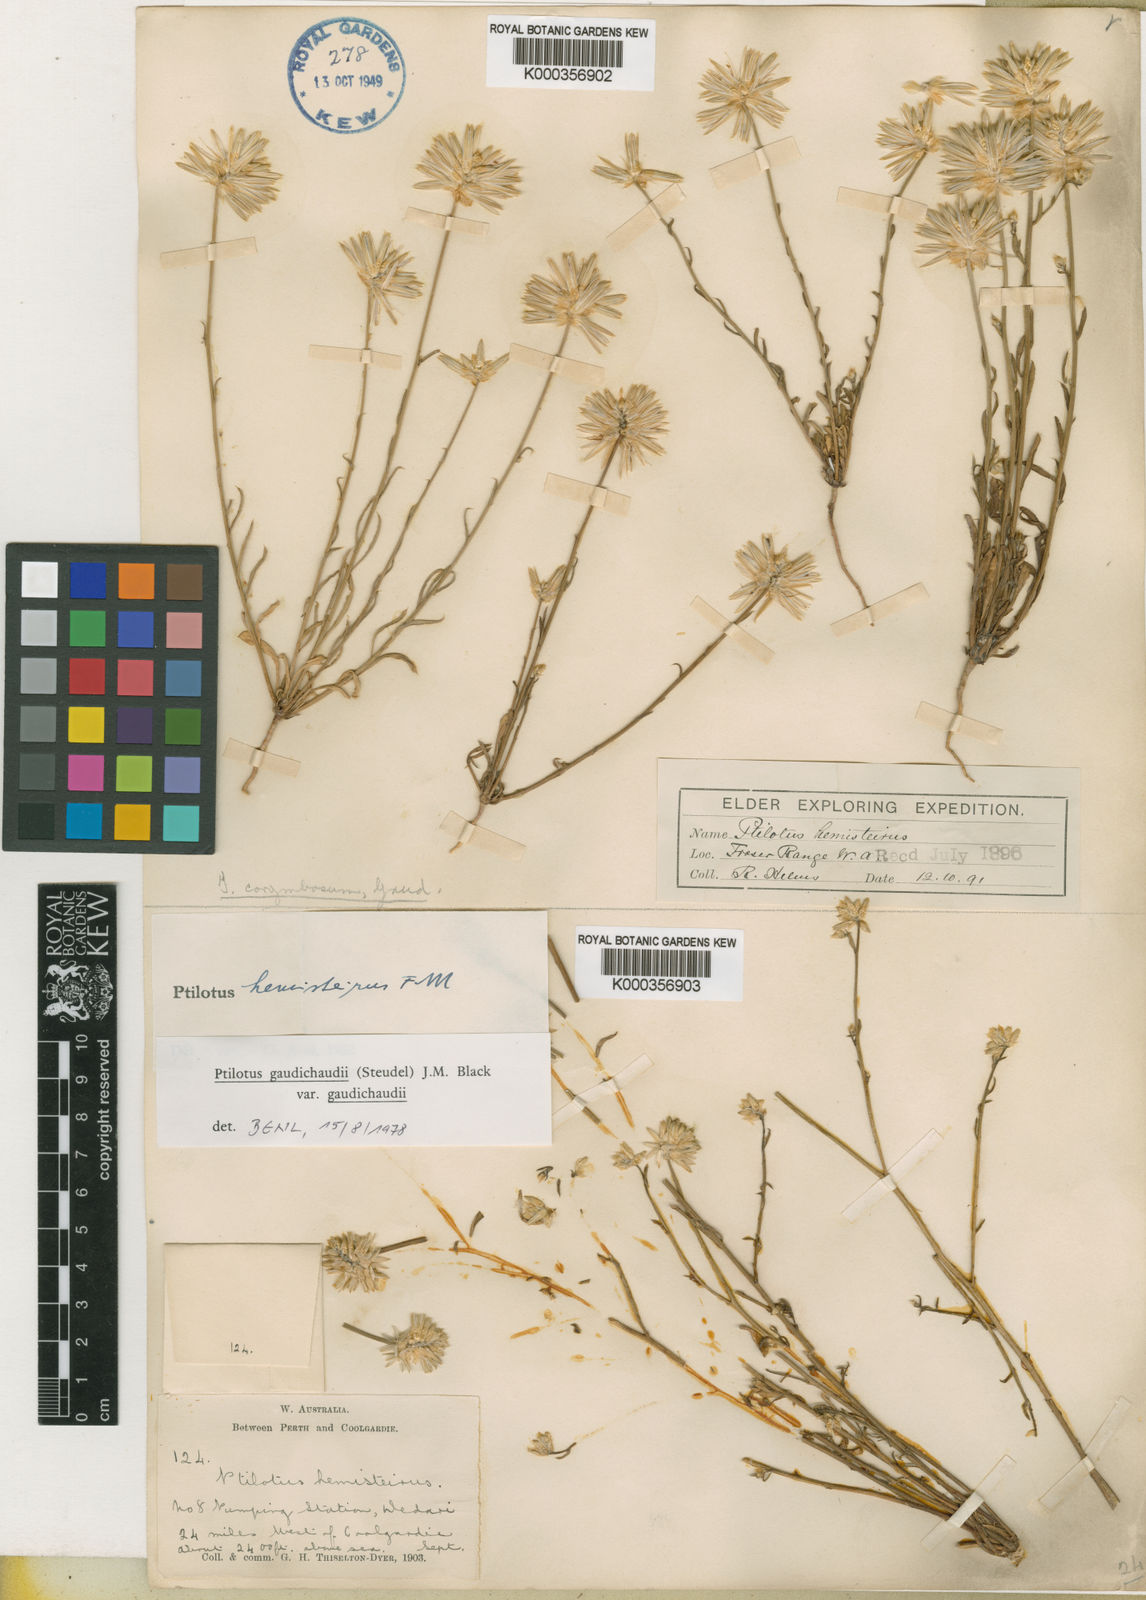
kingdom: Plantae
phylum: Tracheophyta
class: Magnoliopsida
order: Caryophyllales
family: Amaranthaceae
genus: Ptilotus
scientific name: Ptilotus
